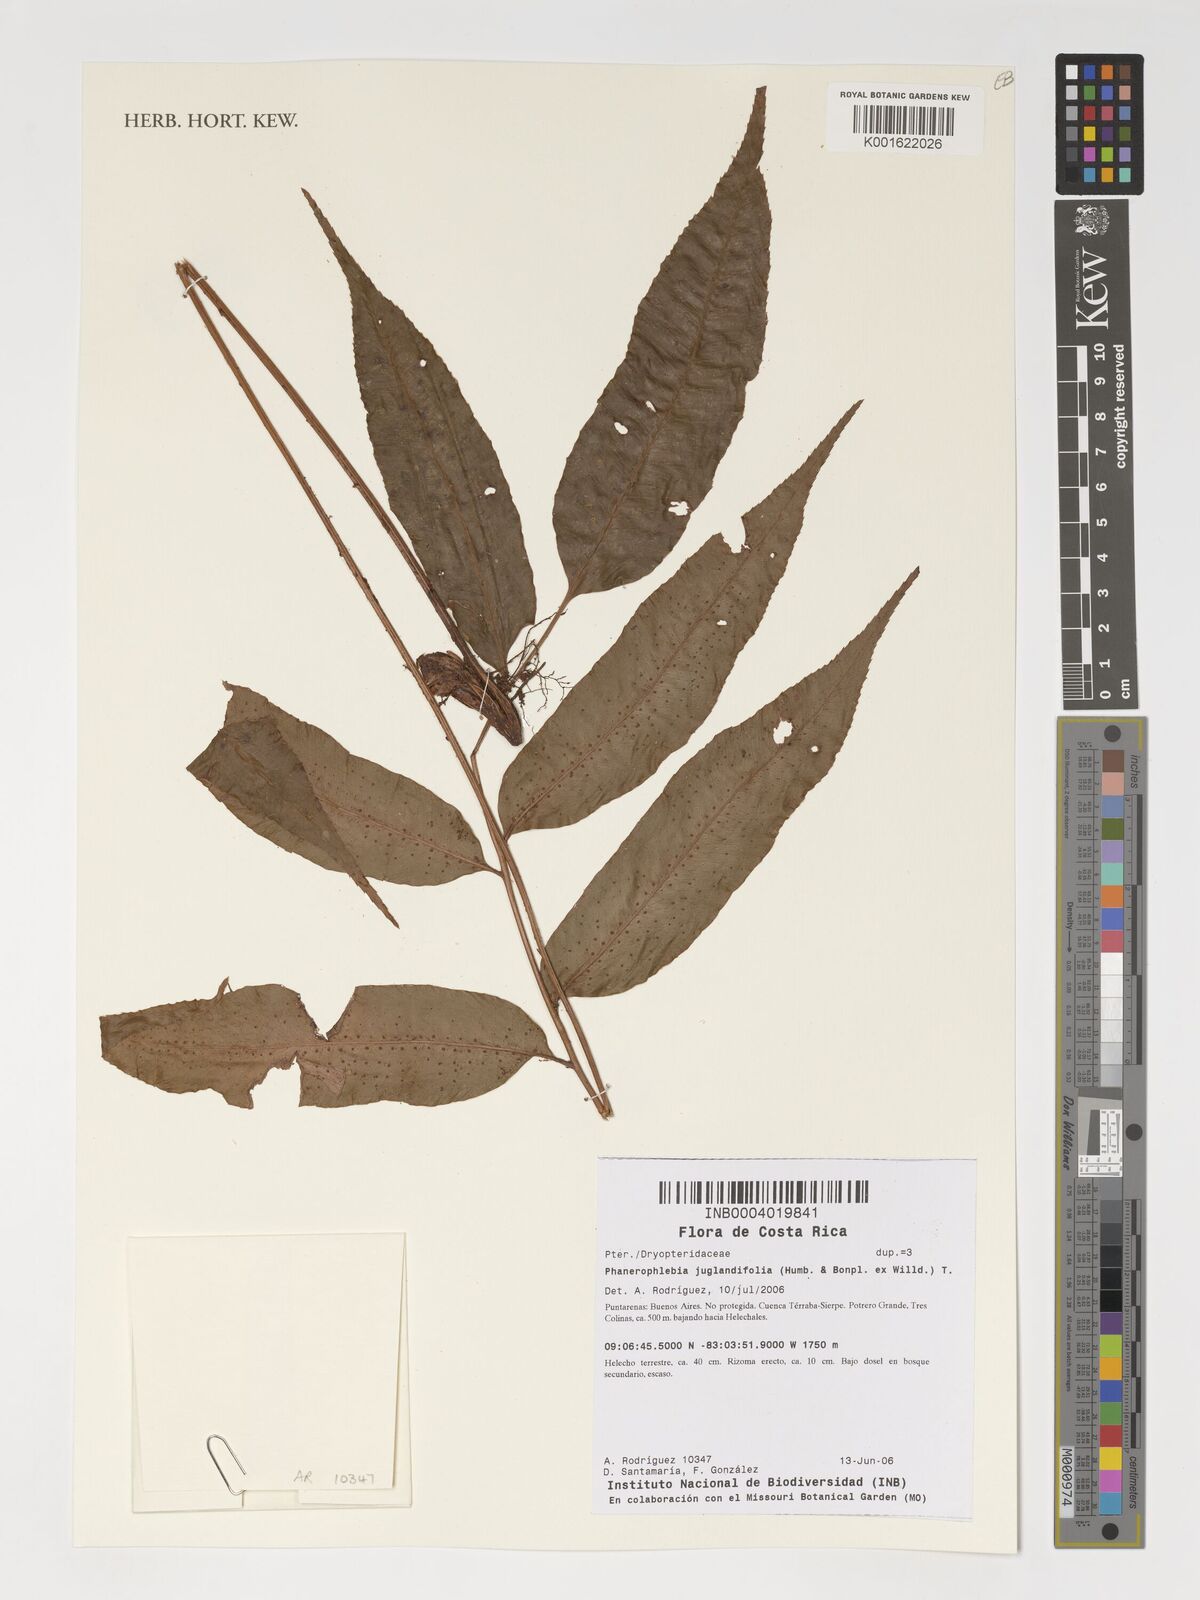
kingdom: Plantae
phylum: Tracheophyta
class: Polypodiopsida
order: Polypodiales
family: Dryopteridaceae
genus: Phanerophlebia
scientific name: Phanerophlebia juglandifolia
